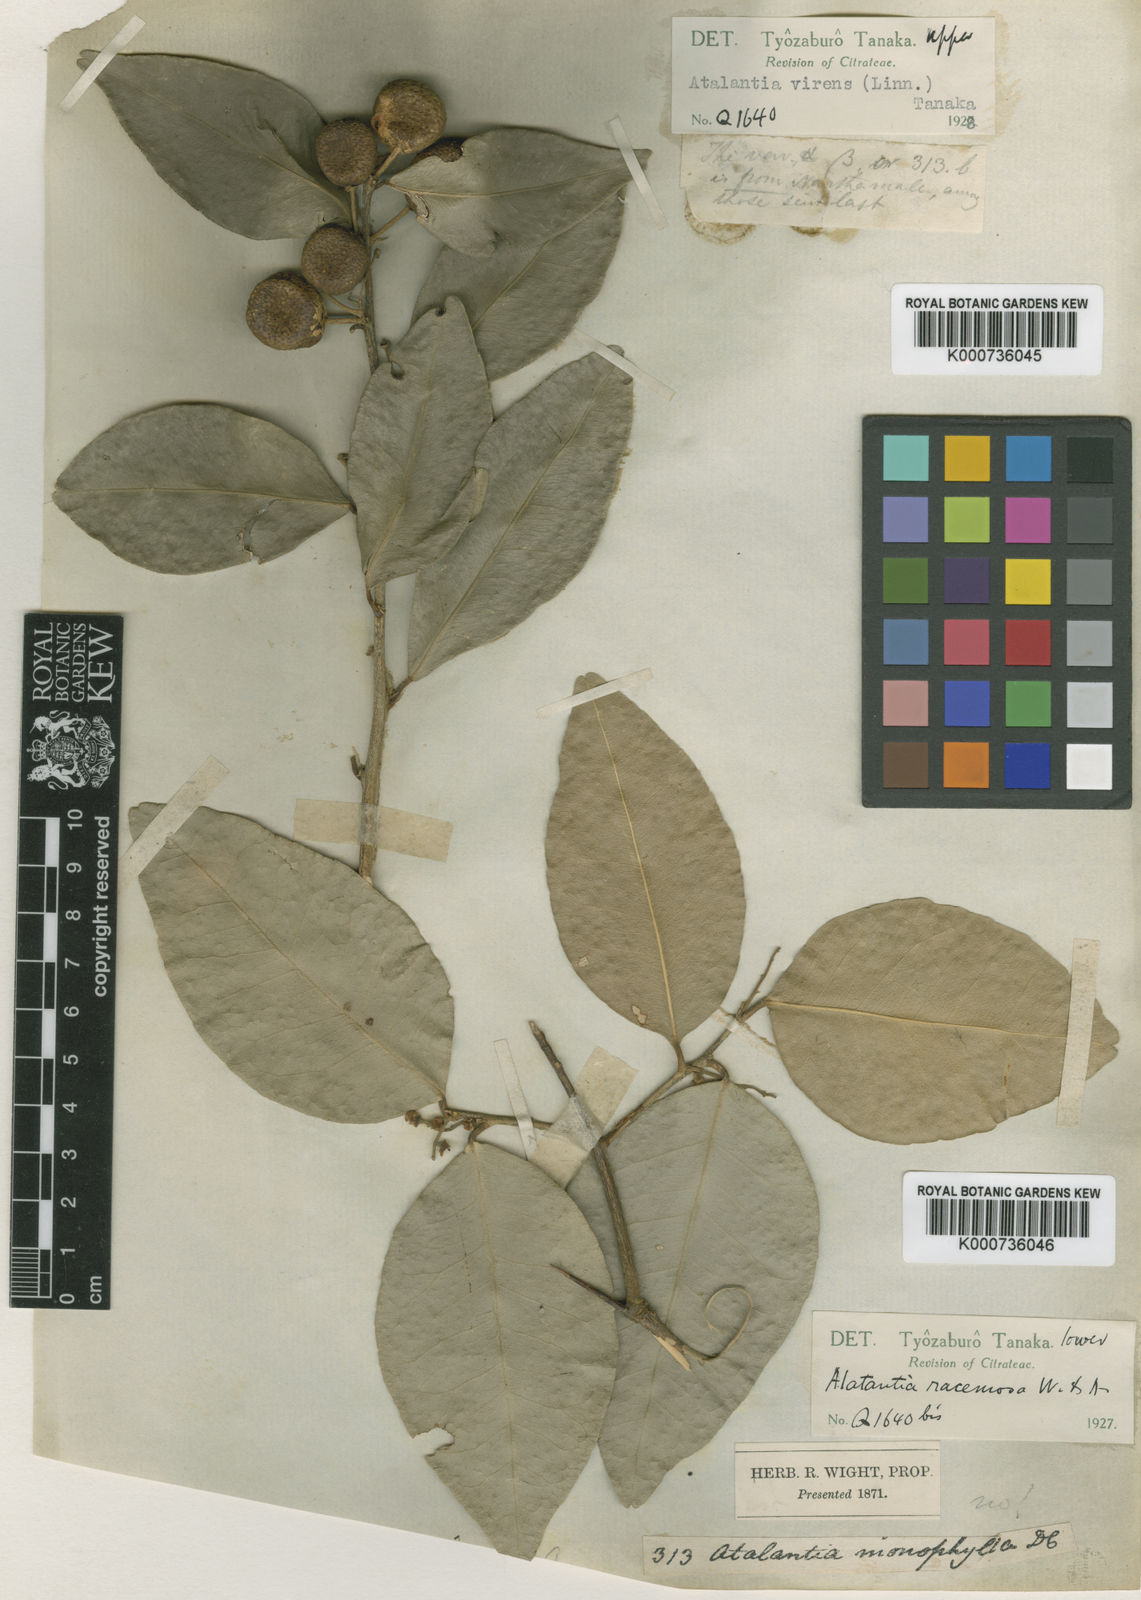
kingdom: Plantae
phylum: Tracheophyta
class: Magnoliopsida
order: Sapindales
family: Rutaceae
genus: Atalantia
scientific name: Atalantia
